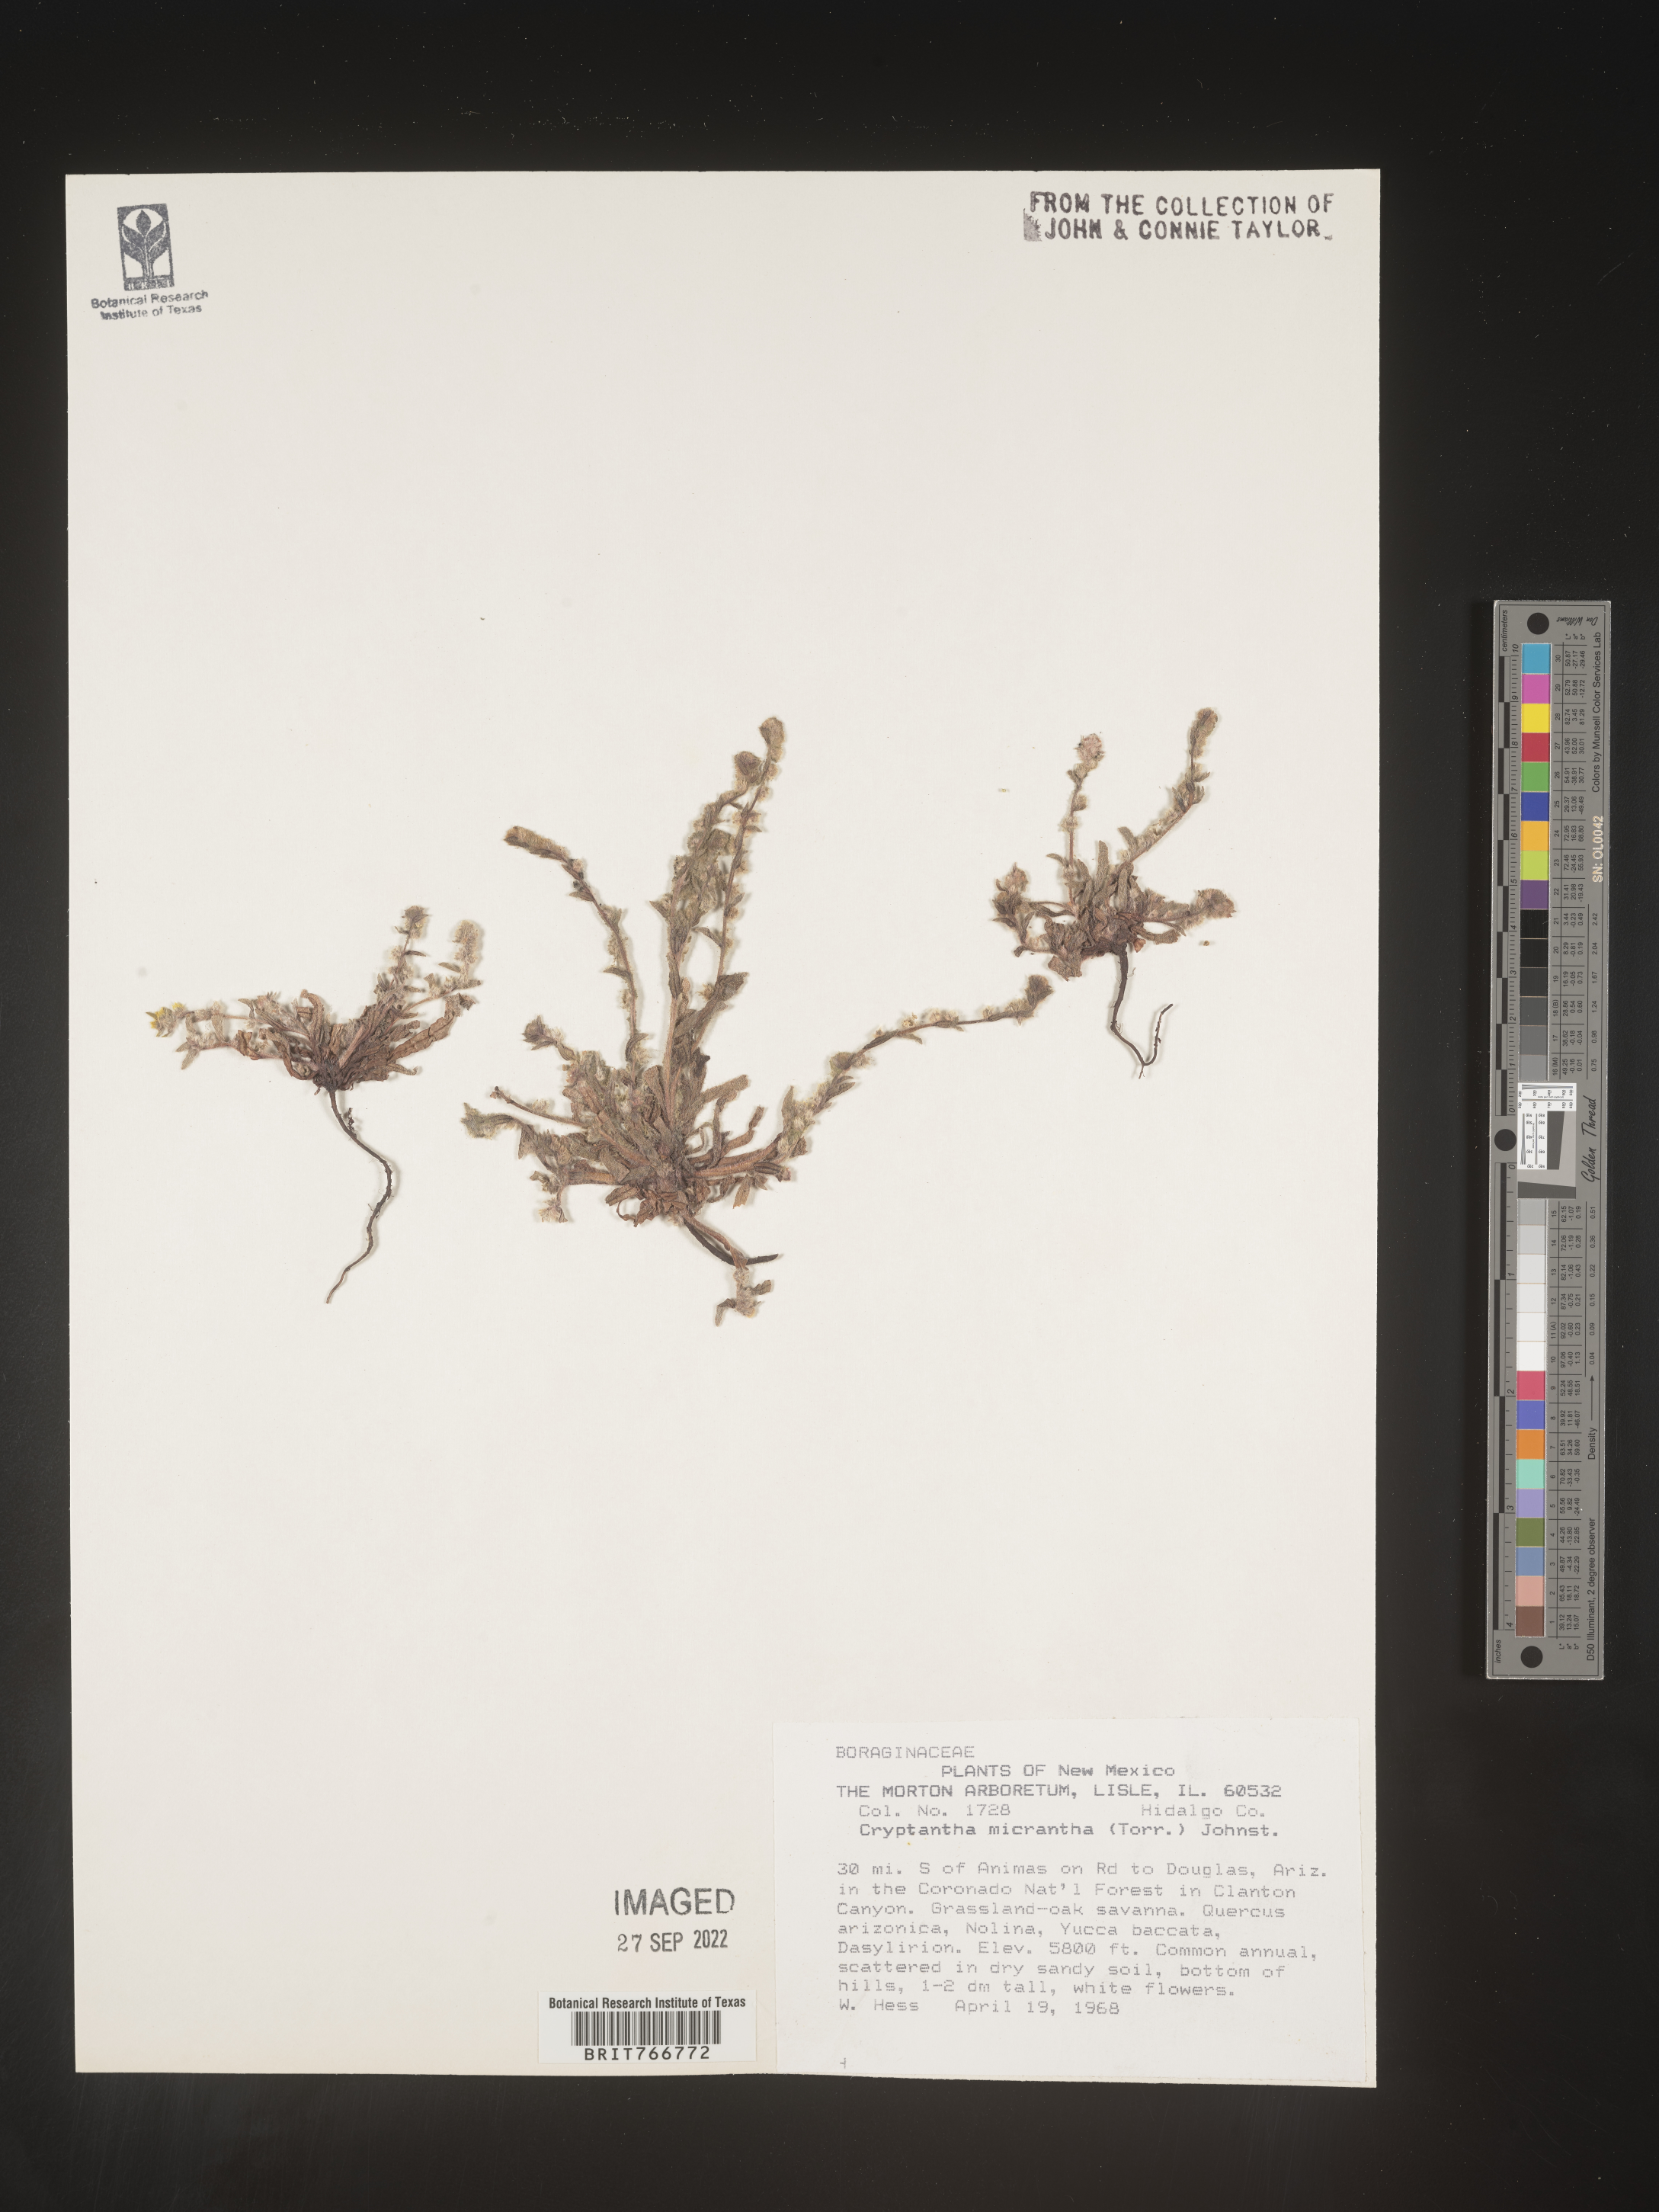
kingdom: Plantae
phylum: Tracheophyta
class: Magnoliopsida
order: Boraginales
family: Boraginaceae
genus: Cryptantha
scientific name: Cryptantha
